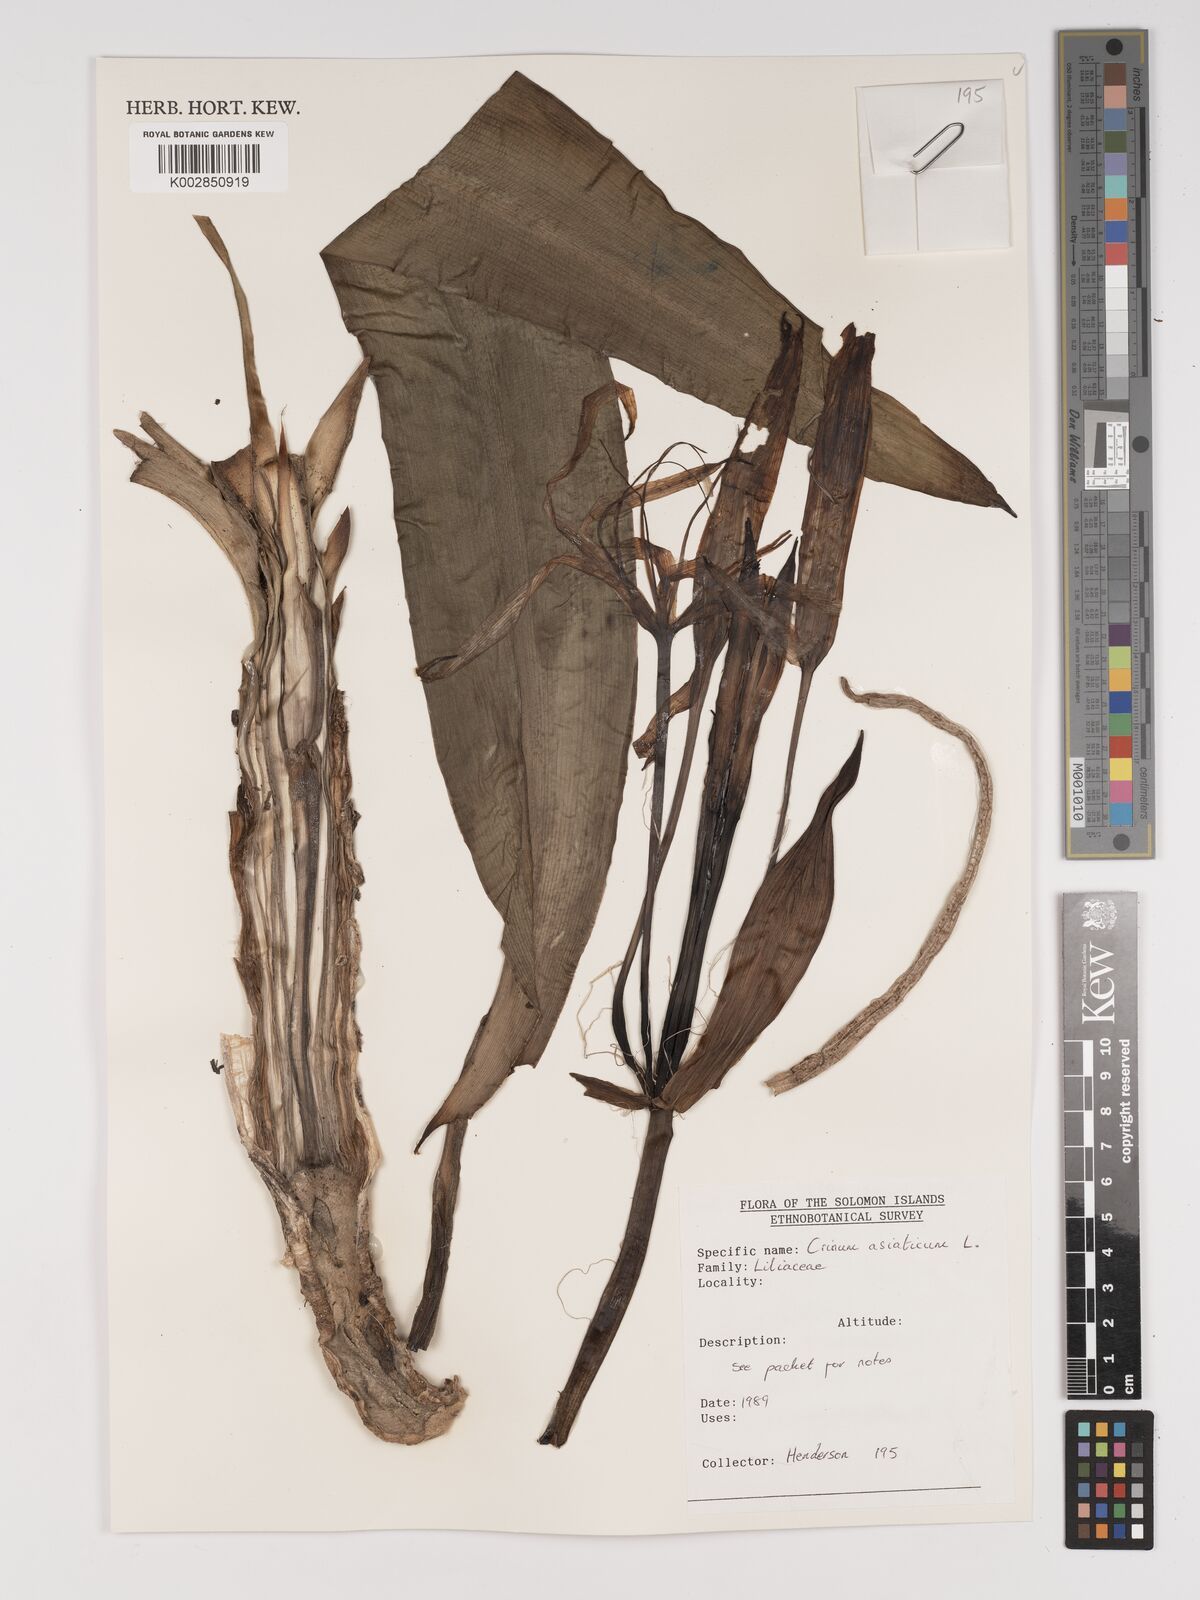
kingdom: Plantae
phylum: Tracheophyta
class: Liliopsida
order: Asparagales
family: Amaryllidaceae
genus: Crinum
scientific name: Crinum asiaticum
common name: Poisonbulb
